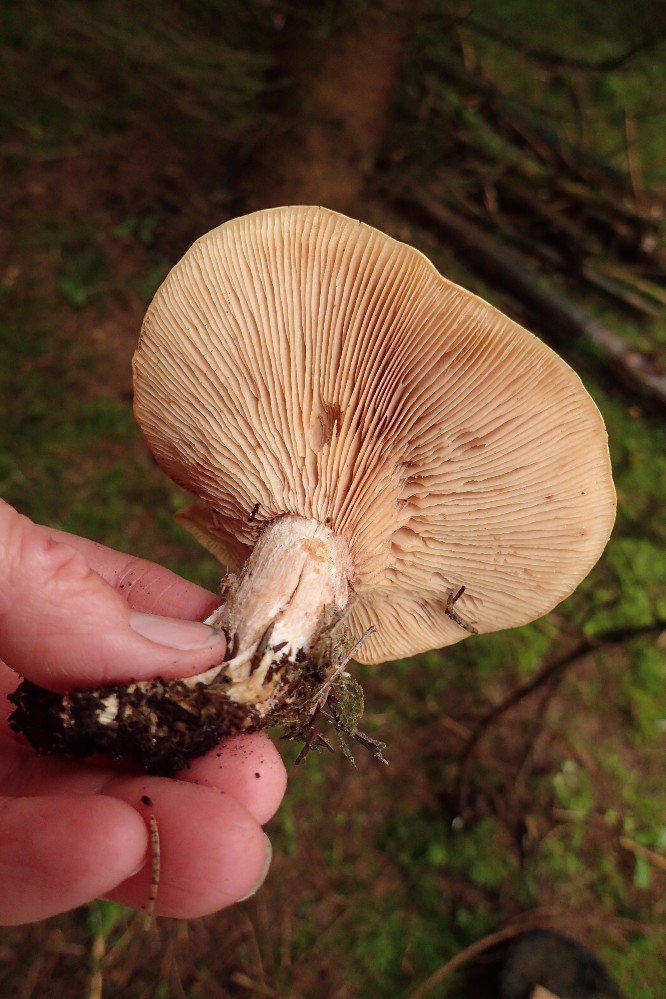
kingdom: Fungi
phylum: Basidiomycota
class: Agaricomycetes
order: Agaricales
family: Entolomataceae
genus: Clitopilus
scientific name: Clitopilus geminus
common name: kødfarvet troldhat
